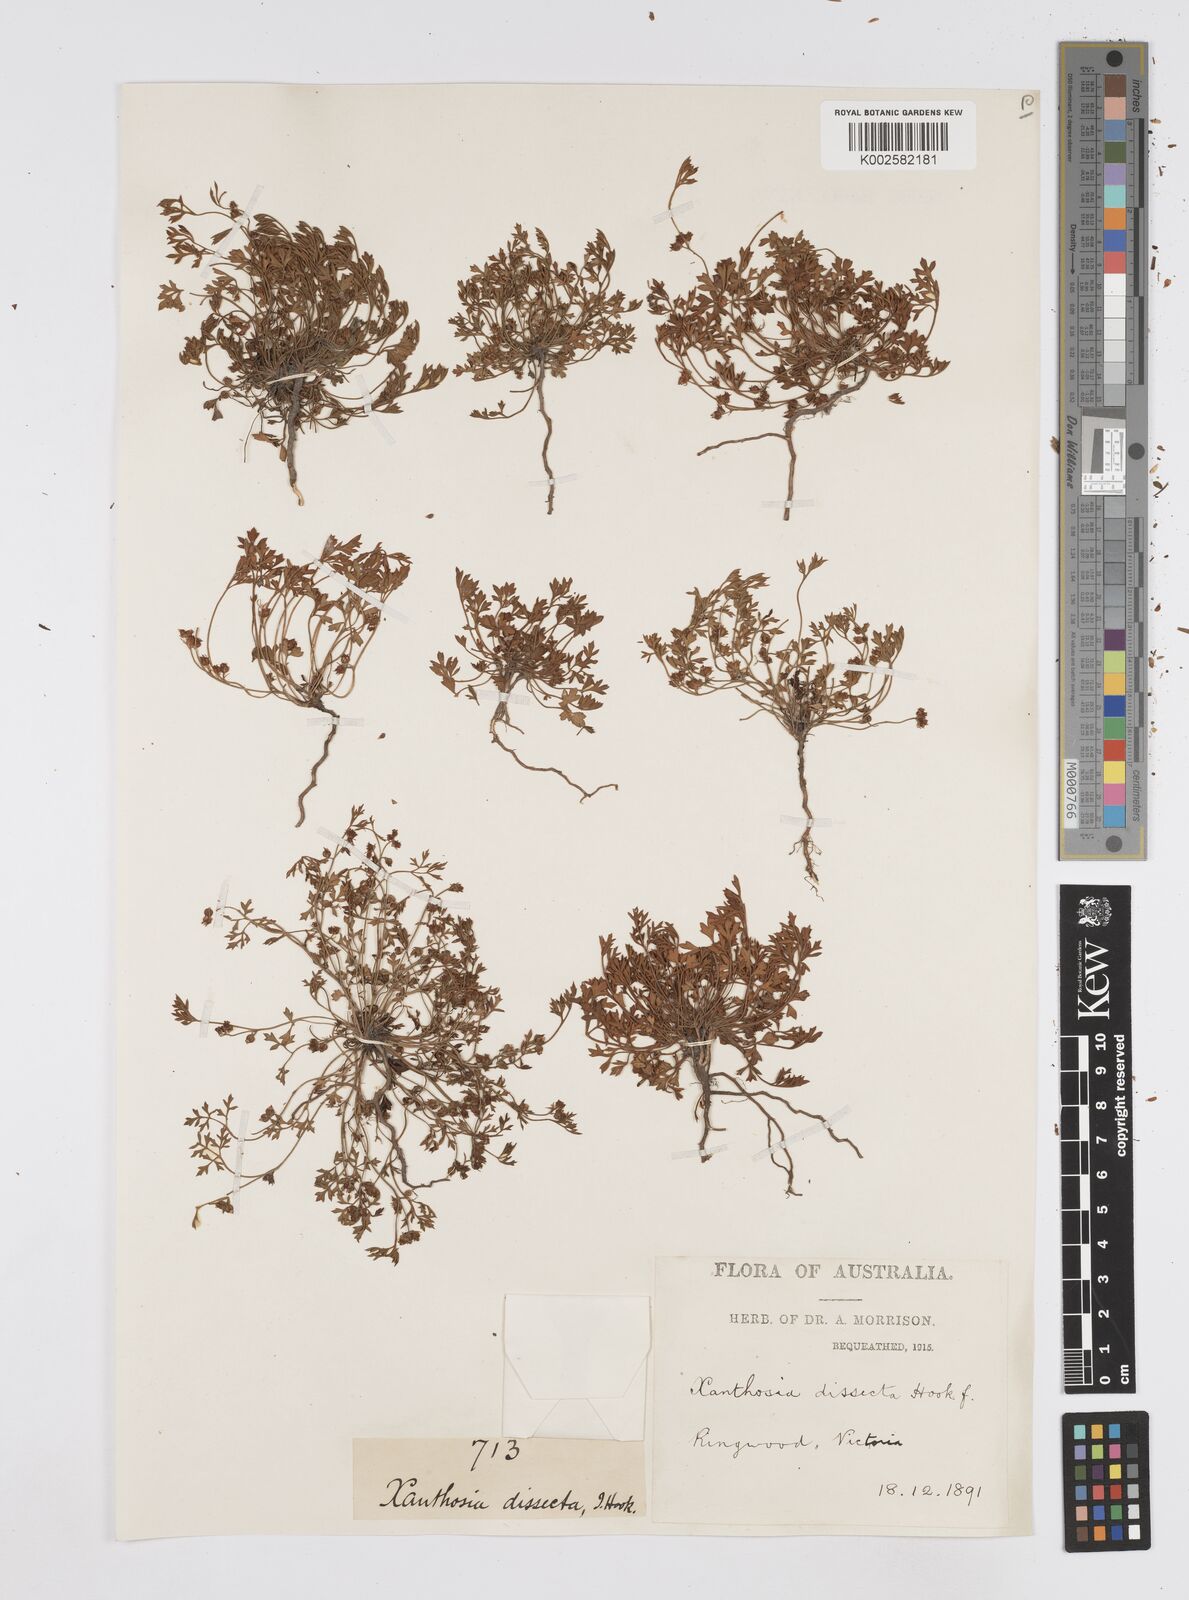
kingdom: Plantae
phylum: Tracheophyta
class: Magnoliopsida
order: Apiales
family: Apiaceae
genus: Xanthosia
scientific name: Xanthosia dissecta
